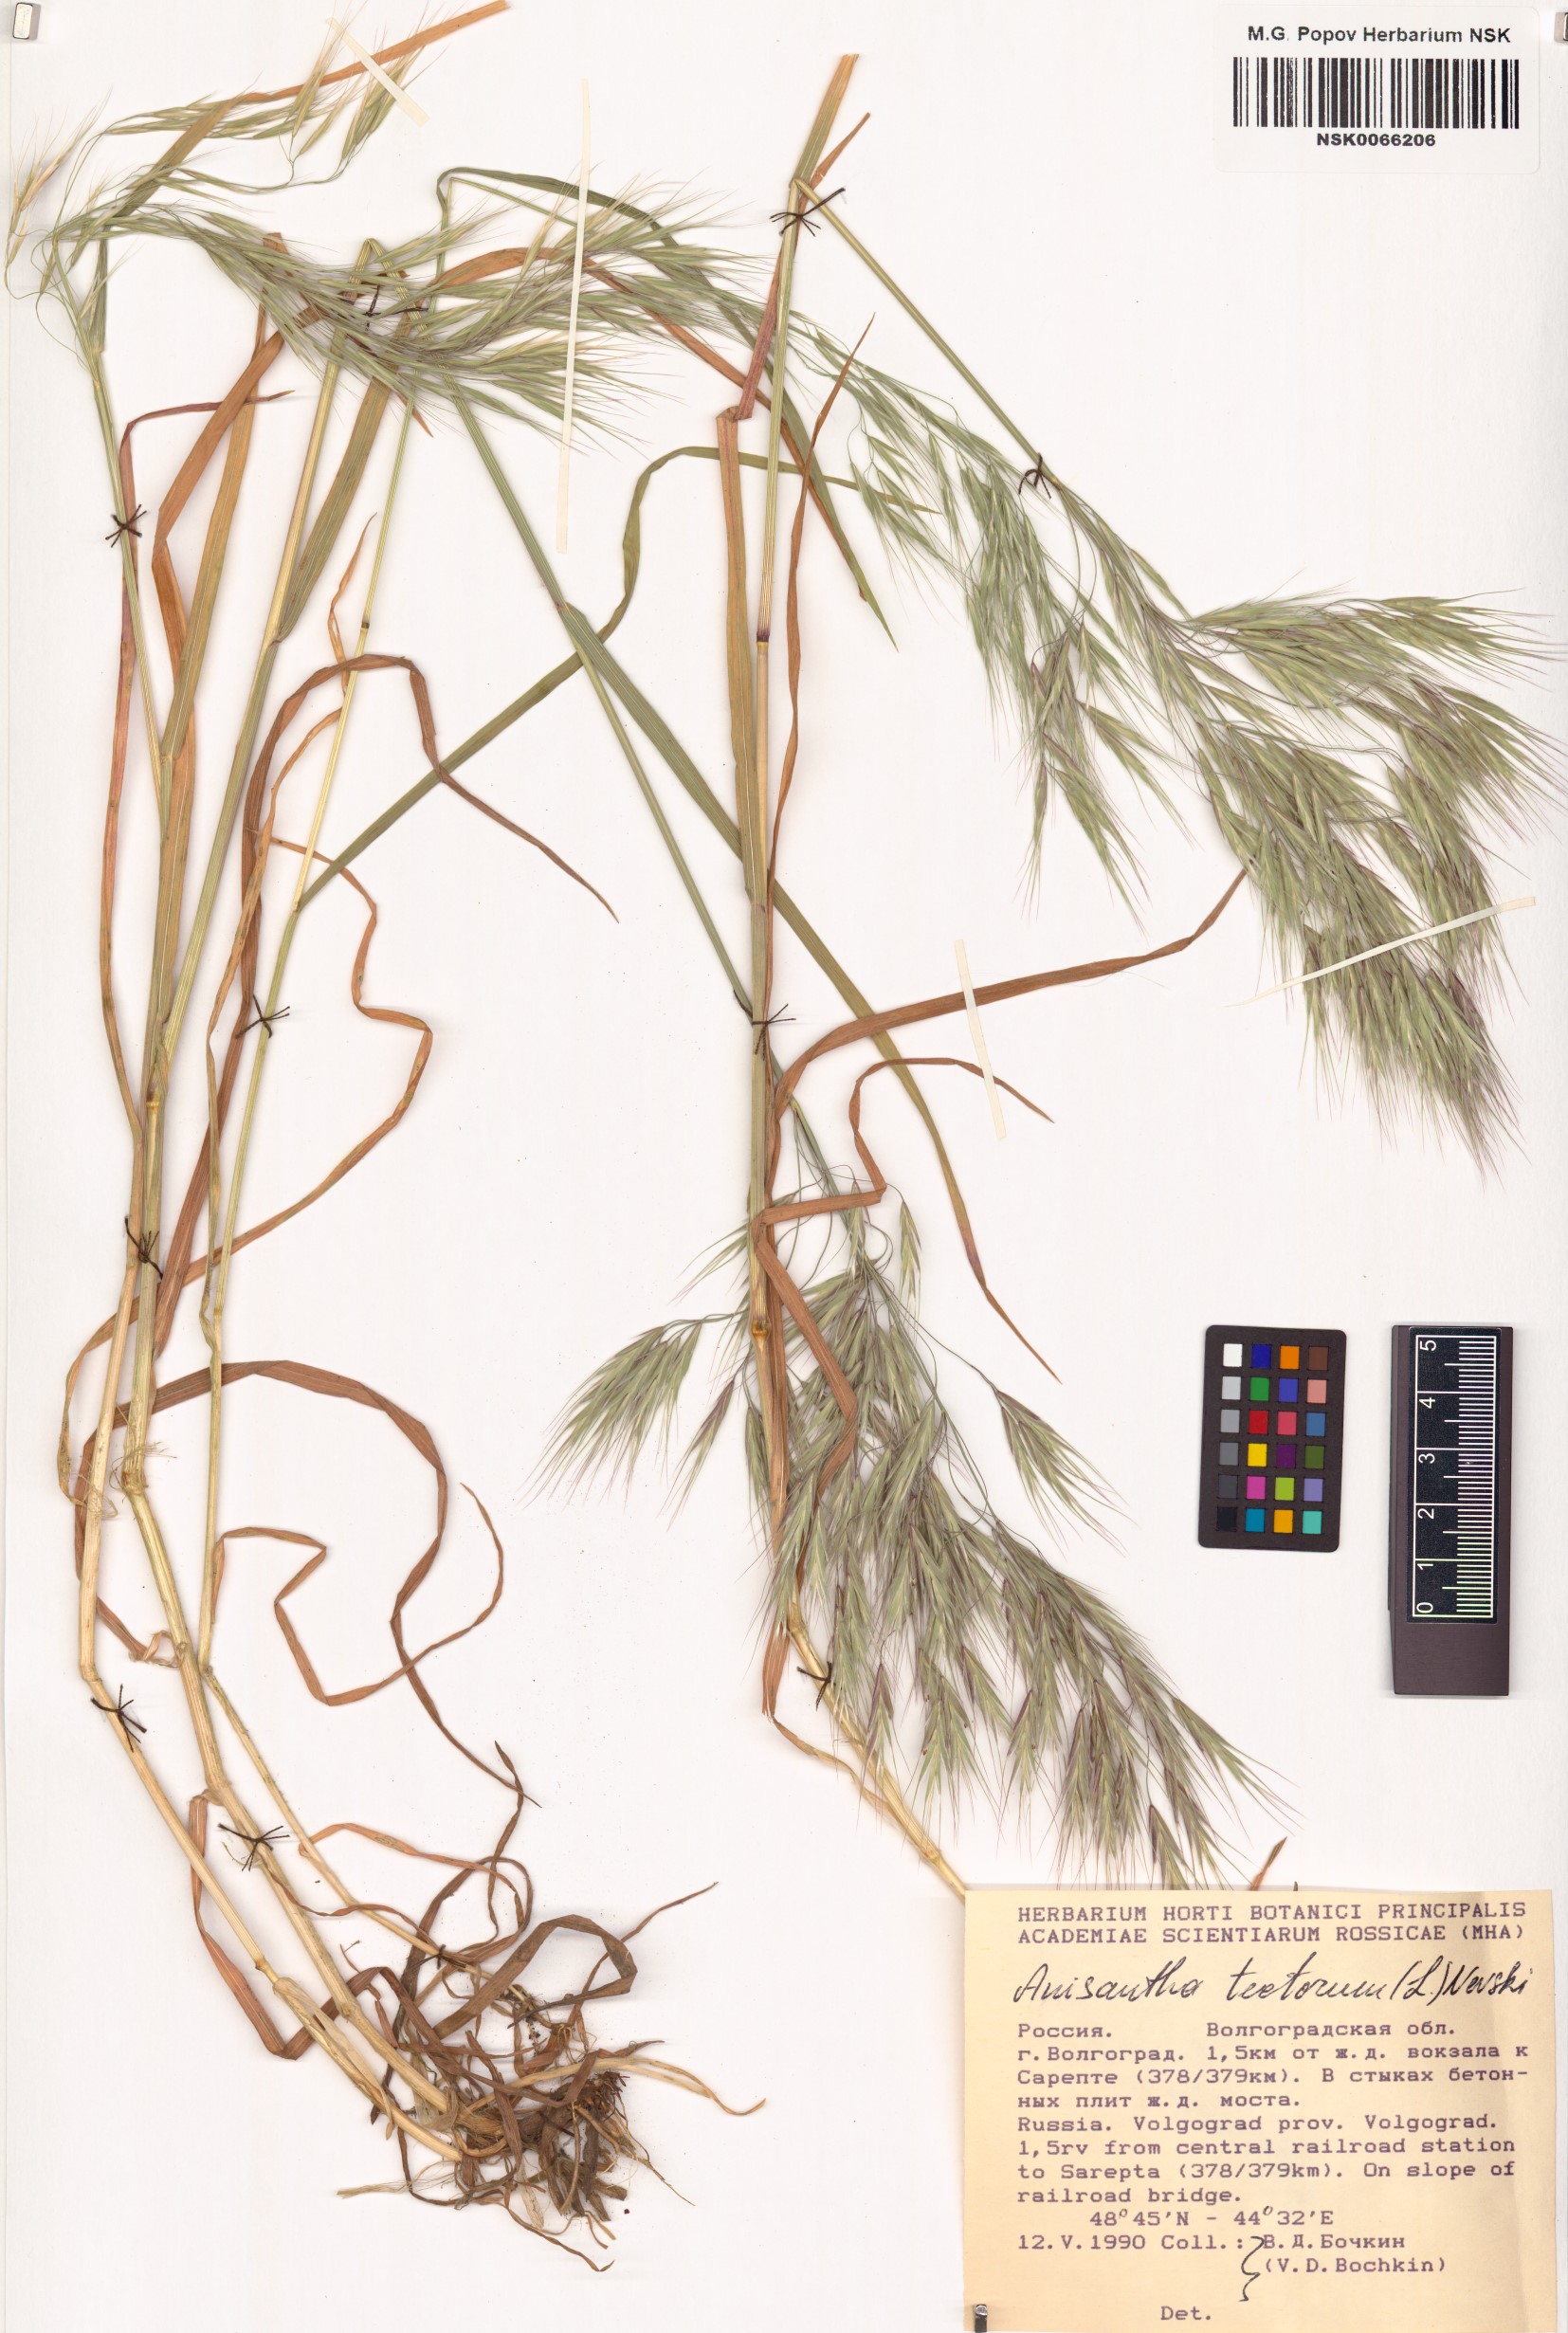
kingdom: Plantae
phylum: Tracheophyta
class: Liliopsida
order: Poales
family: Poaceae
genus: Bromus
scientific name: Bromus tectorum
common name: Cheatgrass
